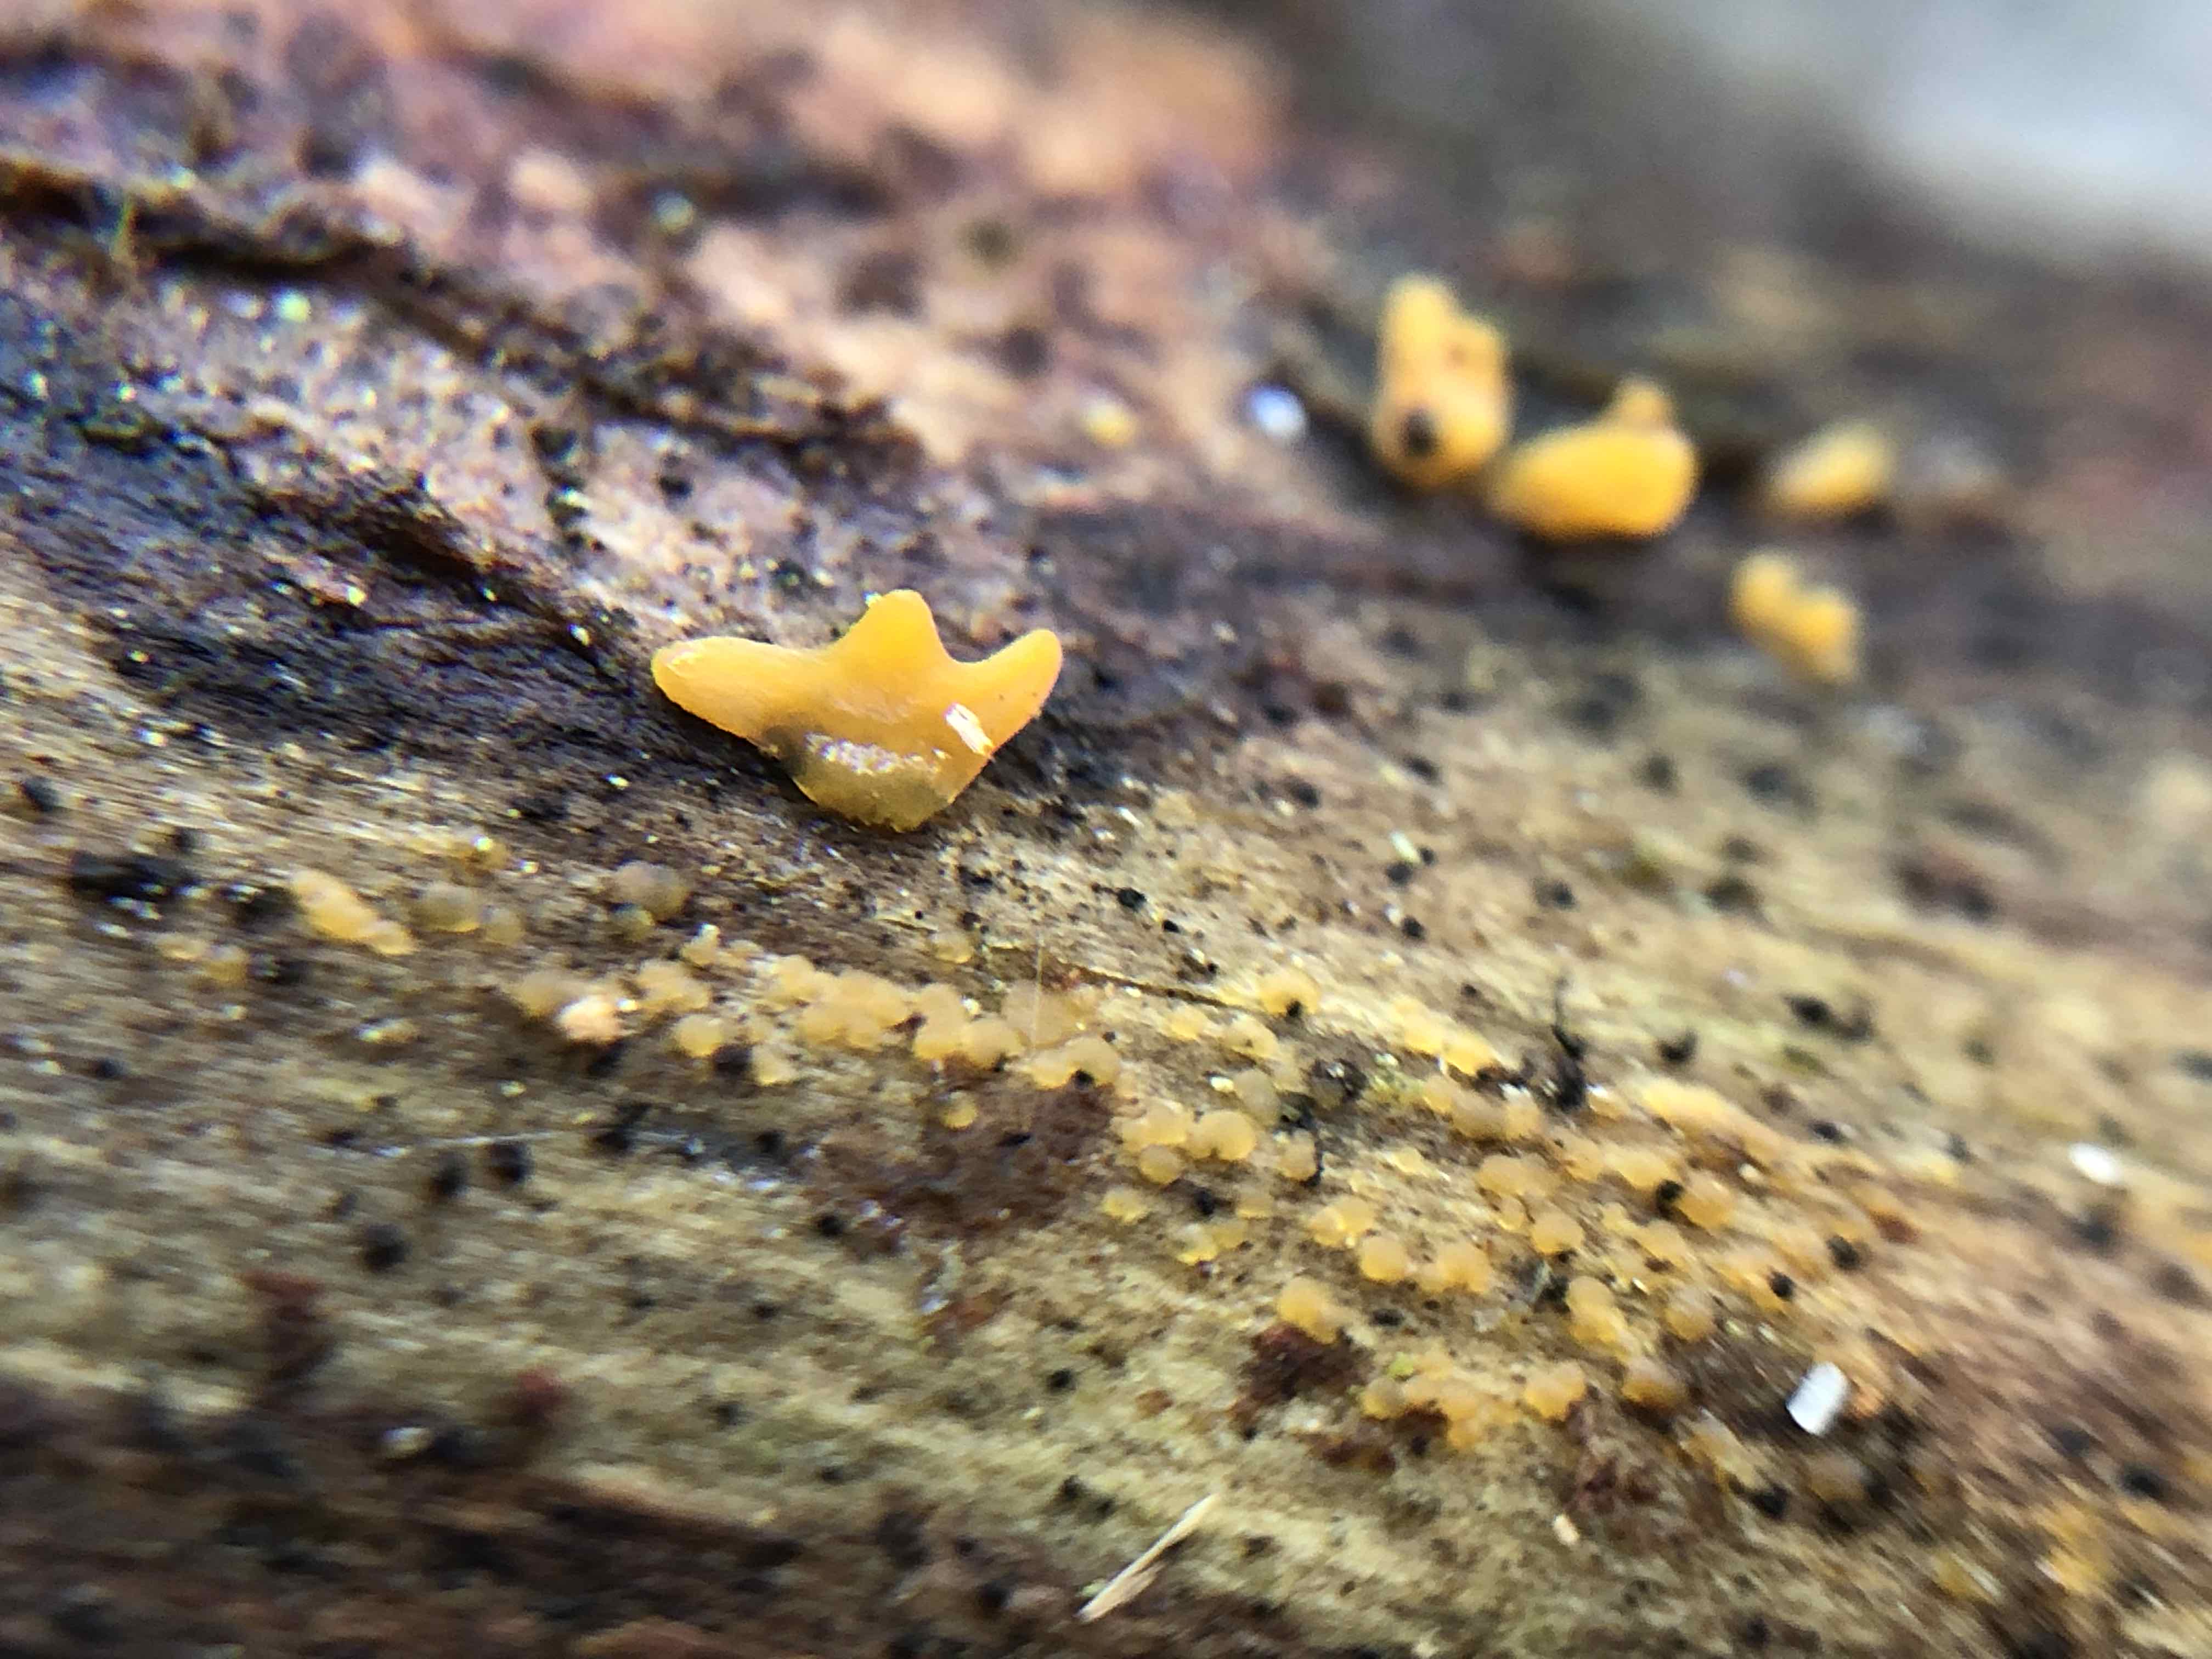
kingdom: Fungi
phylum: Basidiomycota
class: Dacrymycetes
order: Dacrymycetales
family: Dacrymycetaceae
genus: Calocera
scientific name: Calocera furcata
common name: fyrre-guldgaffel
